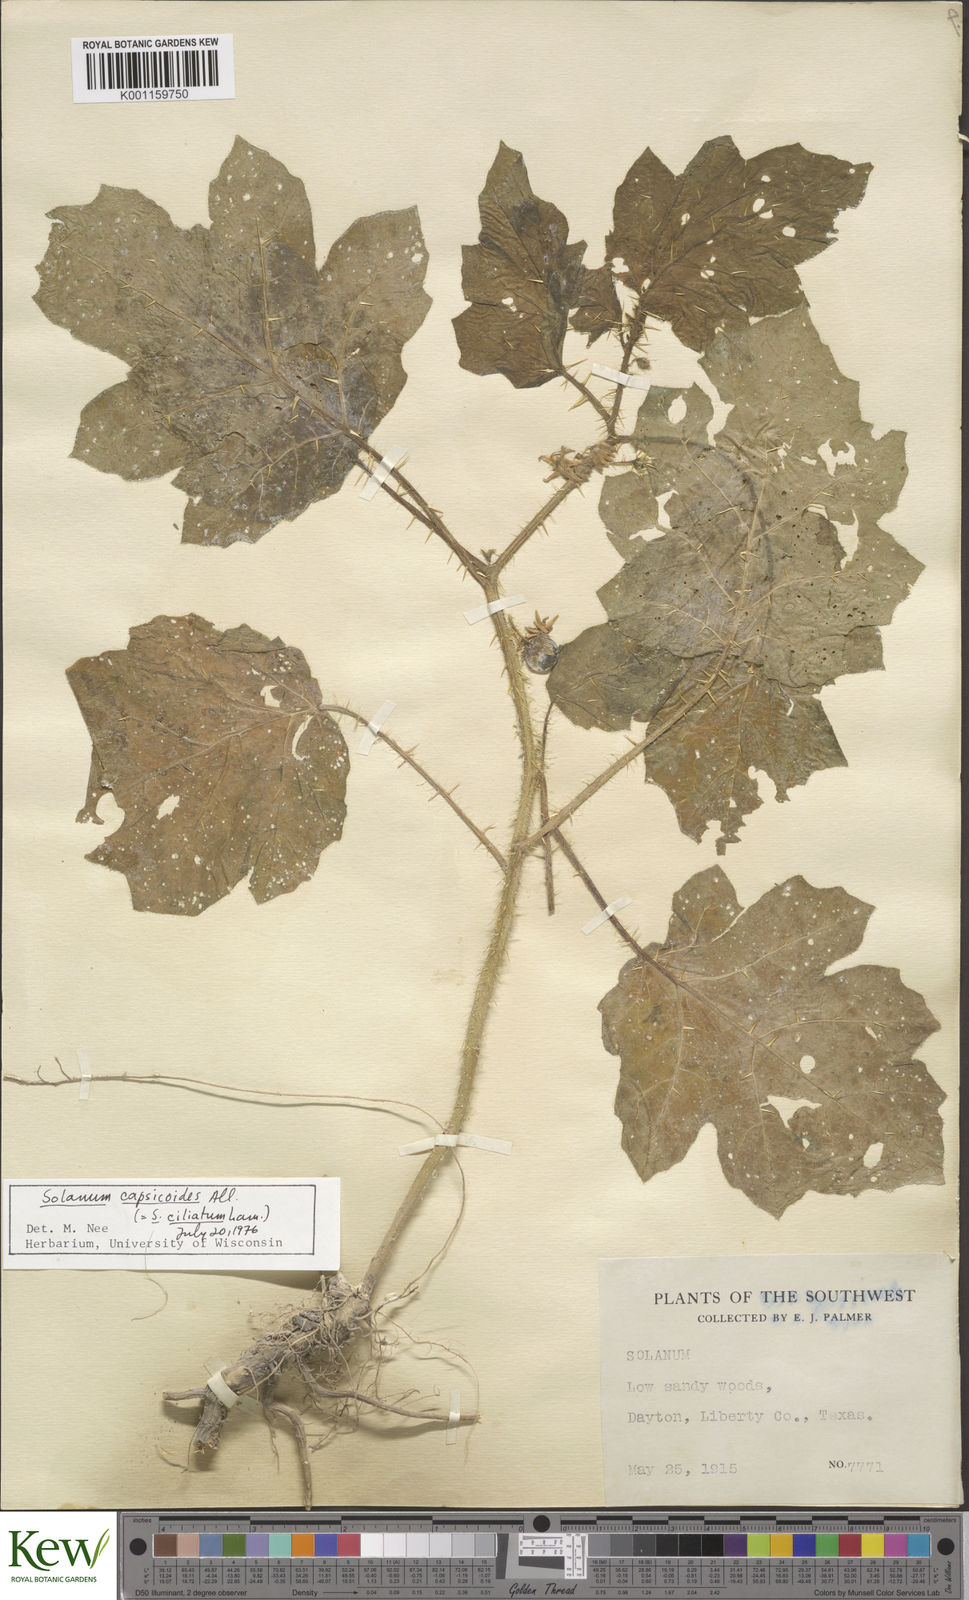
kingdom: Plantae
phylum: Tracheophyta
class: Magnoliopsida
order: Solanales
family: Solanaceae
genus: Solanum
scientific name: Solanum
